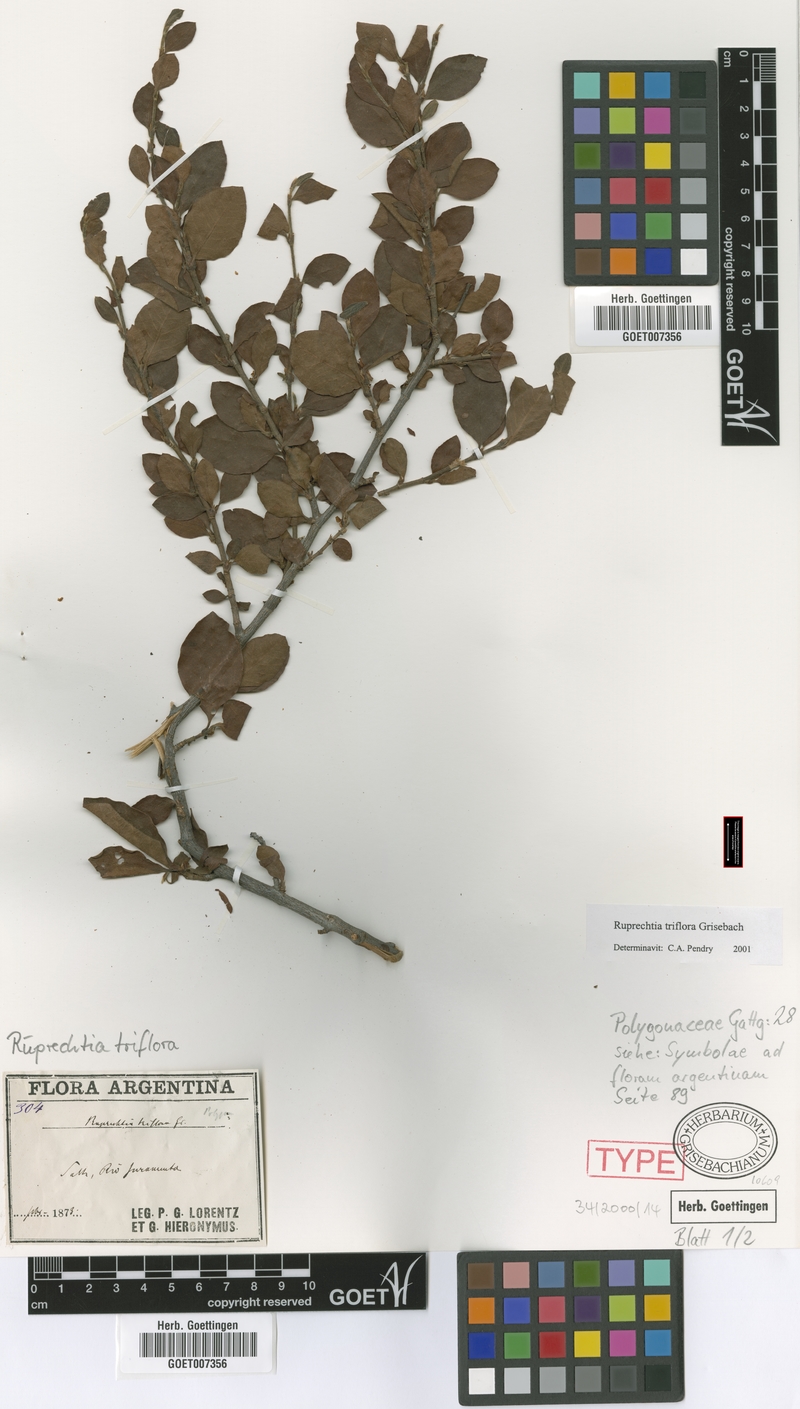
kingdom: Plantae
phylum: Tracheophyta
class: Magnoliopsida
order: Caryophyllales
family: Polygonaceae
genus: Salta
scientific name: Salta triflora
